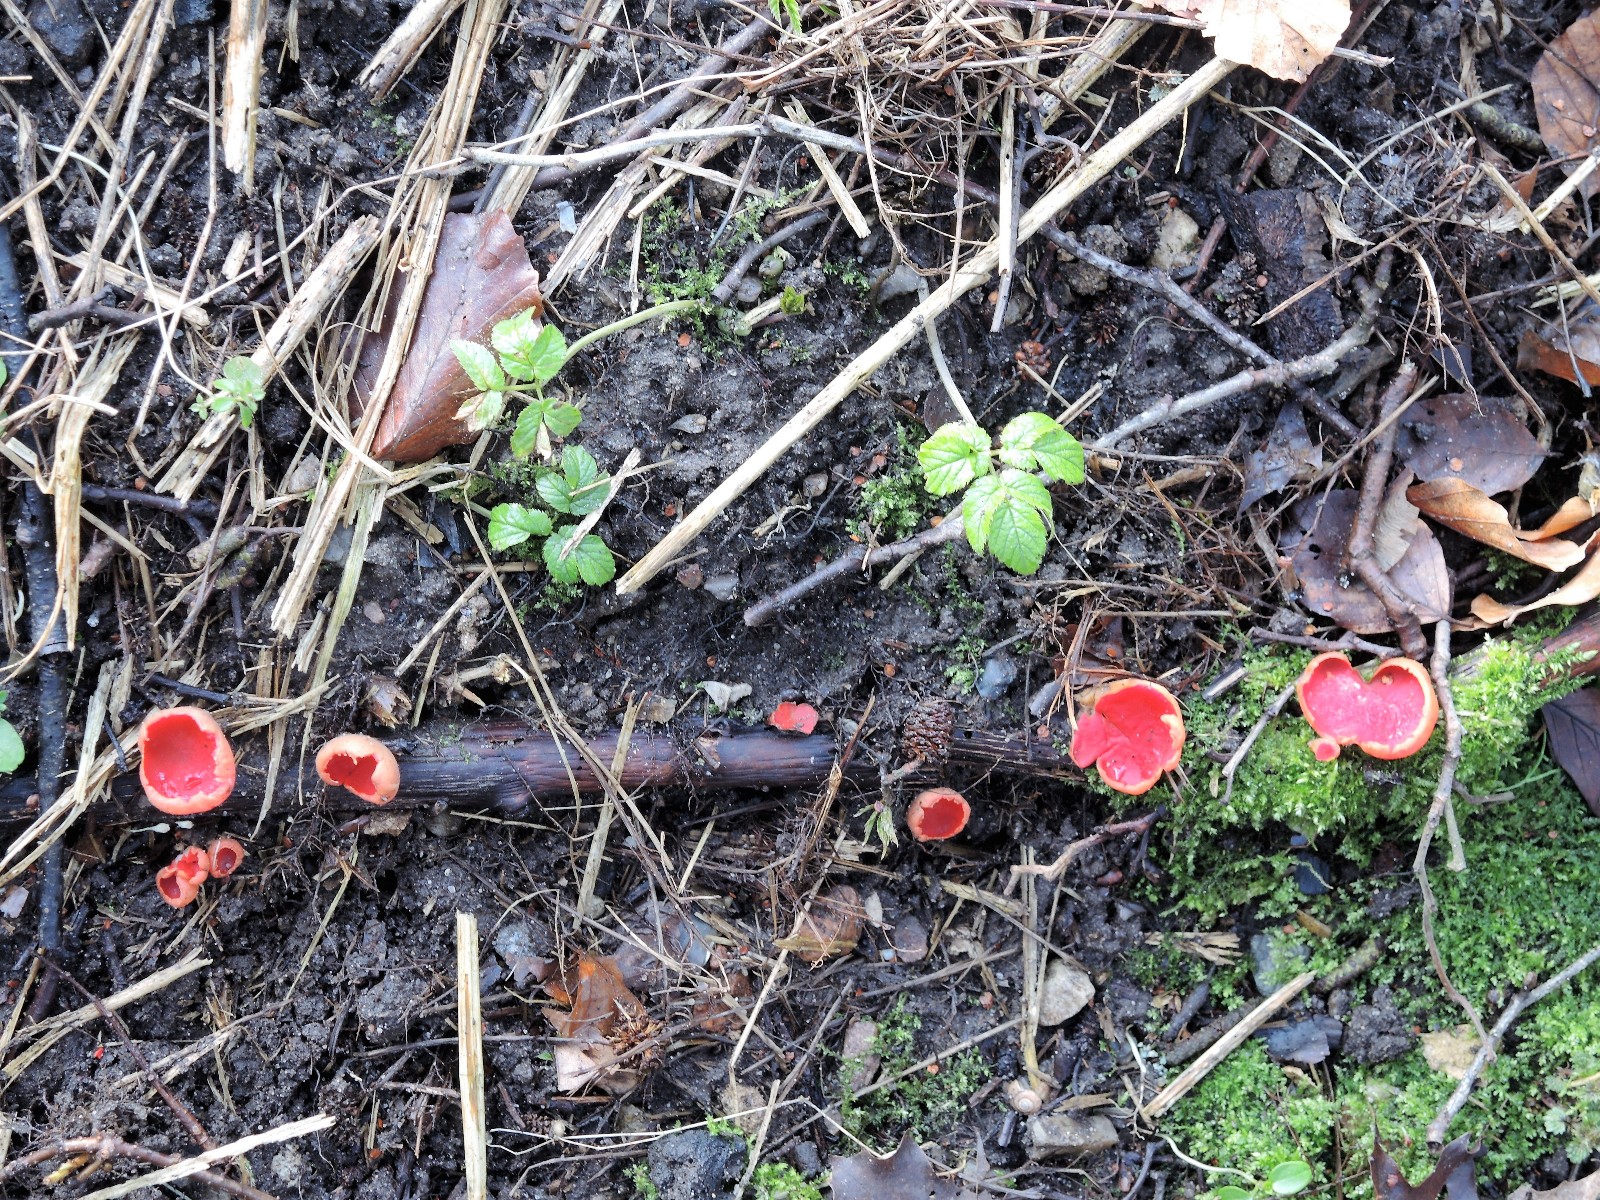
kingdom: Fungi
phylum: Ascomycota
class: Pezizomycetes
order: Pezizales
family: Sarcoscyphaceae
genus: Sarcoscypha
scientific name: Sarcoscypha austriaca
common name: krølhåret pragtbæger
